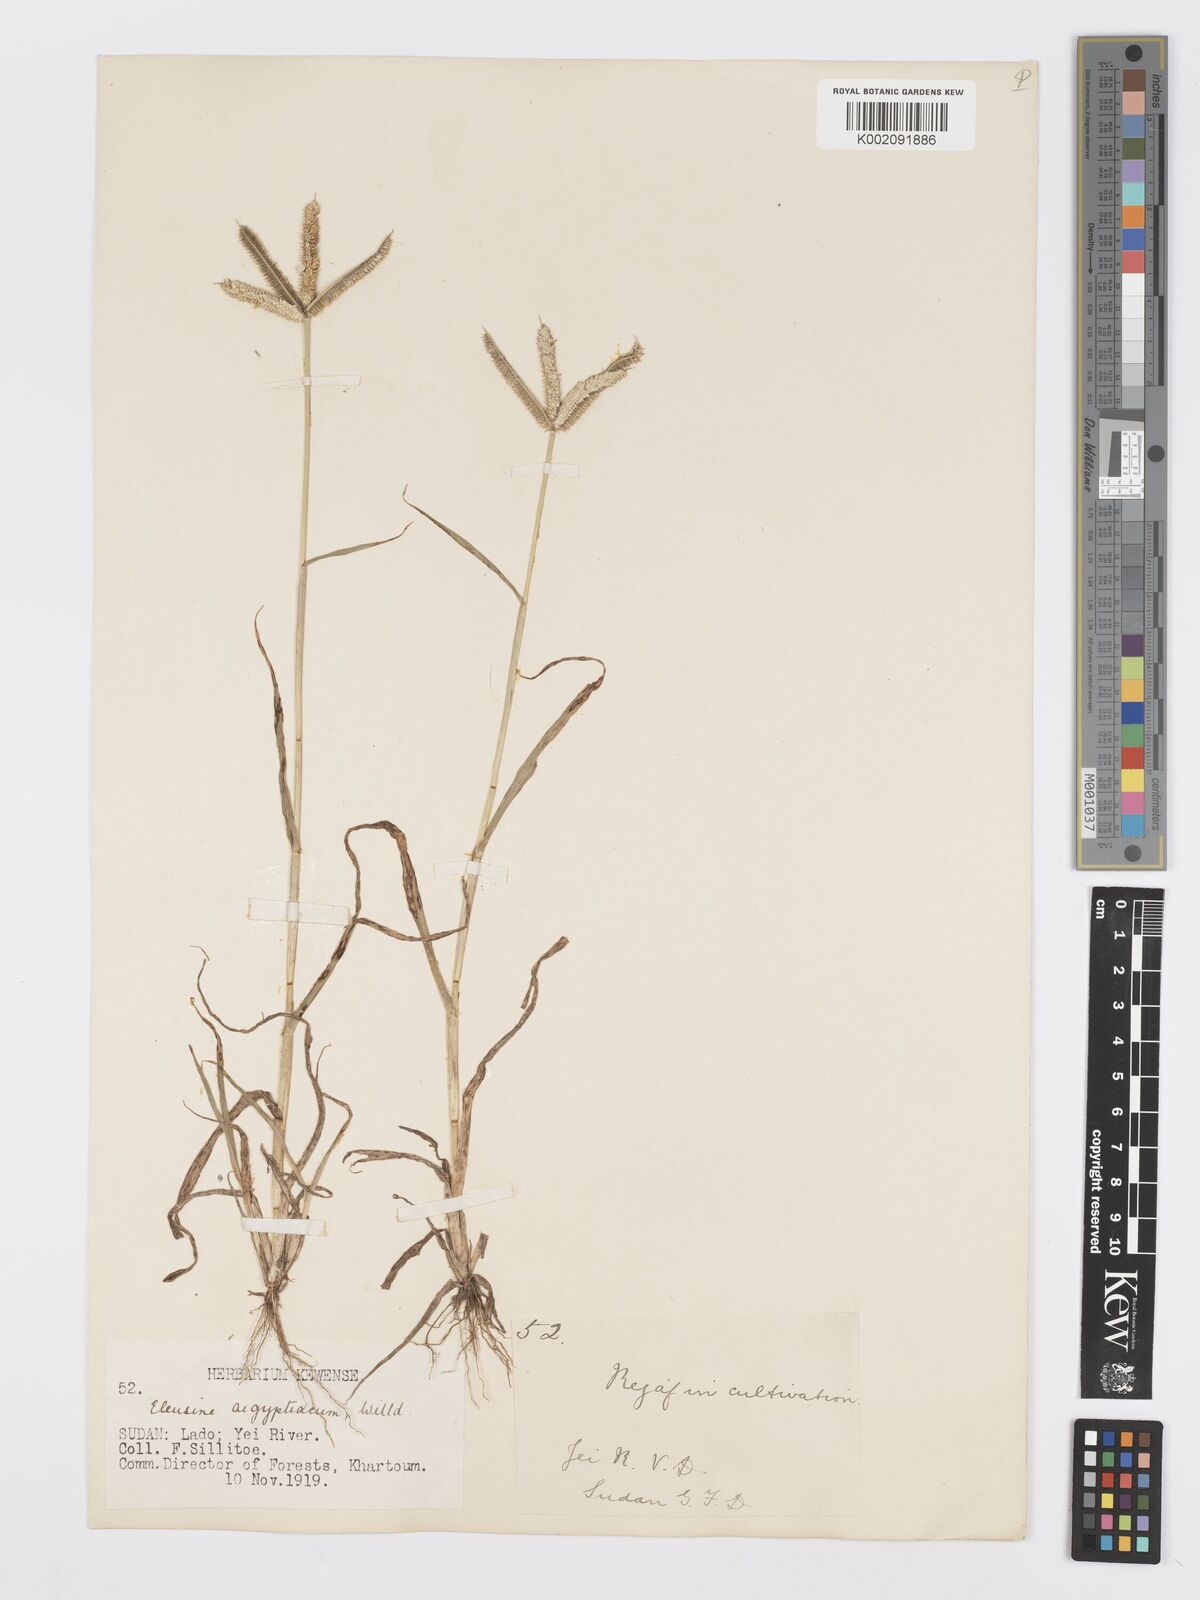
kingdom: Plantae
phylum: Tracheophyta
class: Liliopsida
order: Poales
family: Poaceae
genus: Dactyloctenium
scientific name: Dactyloctenium aegyptium
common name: Egyptian grass
